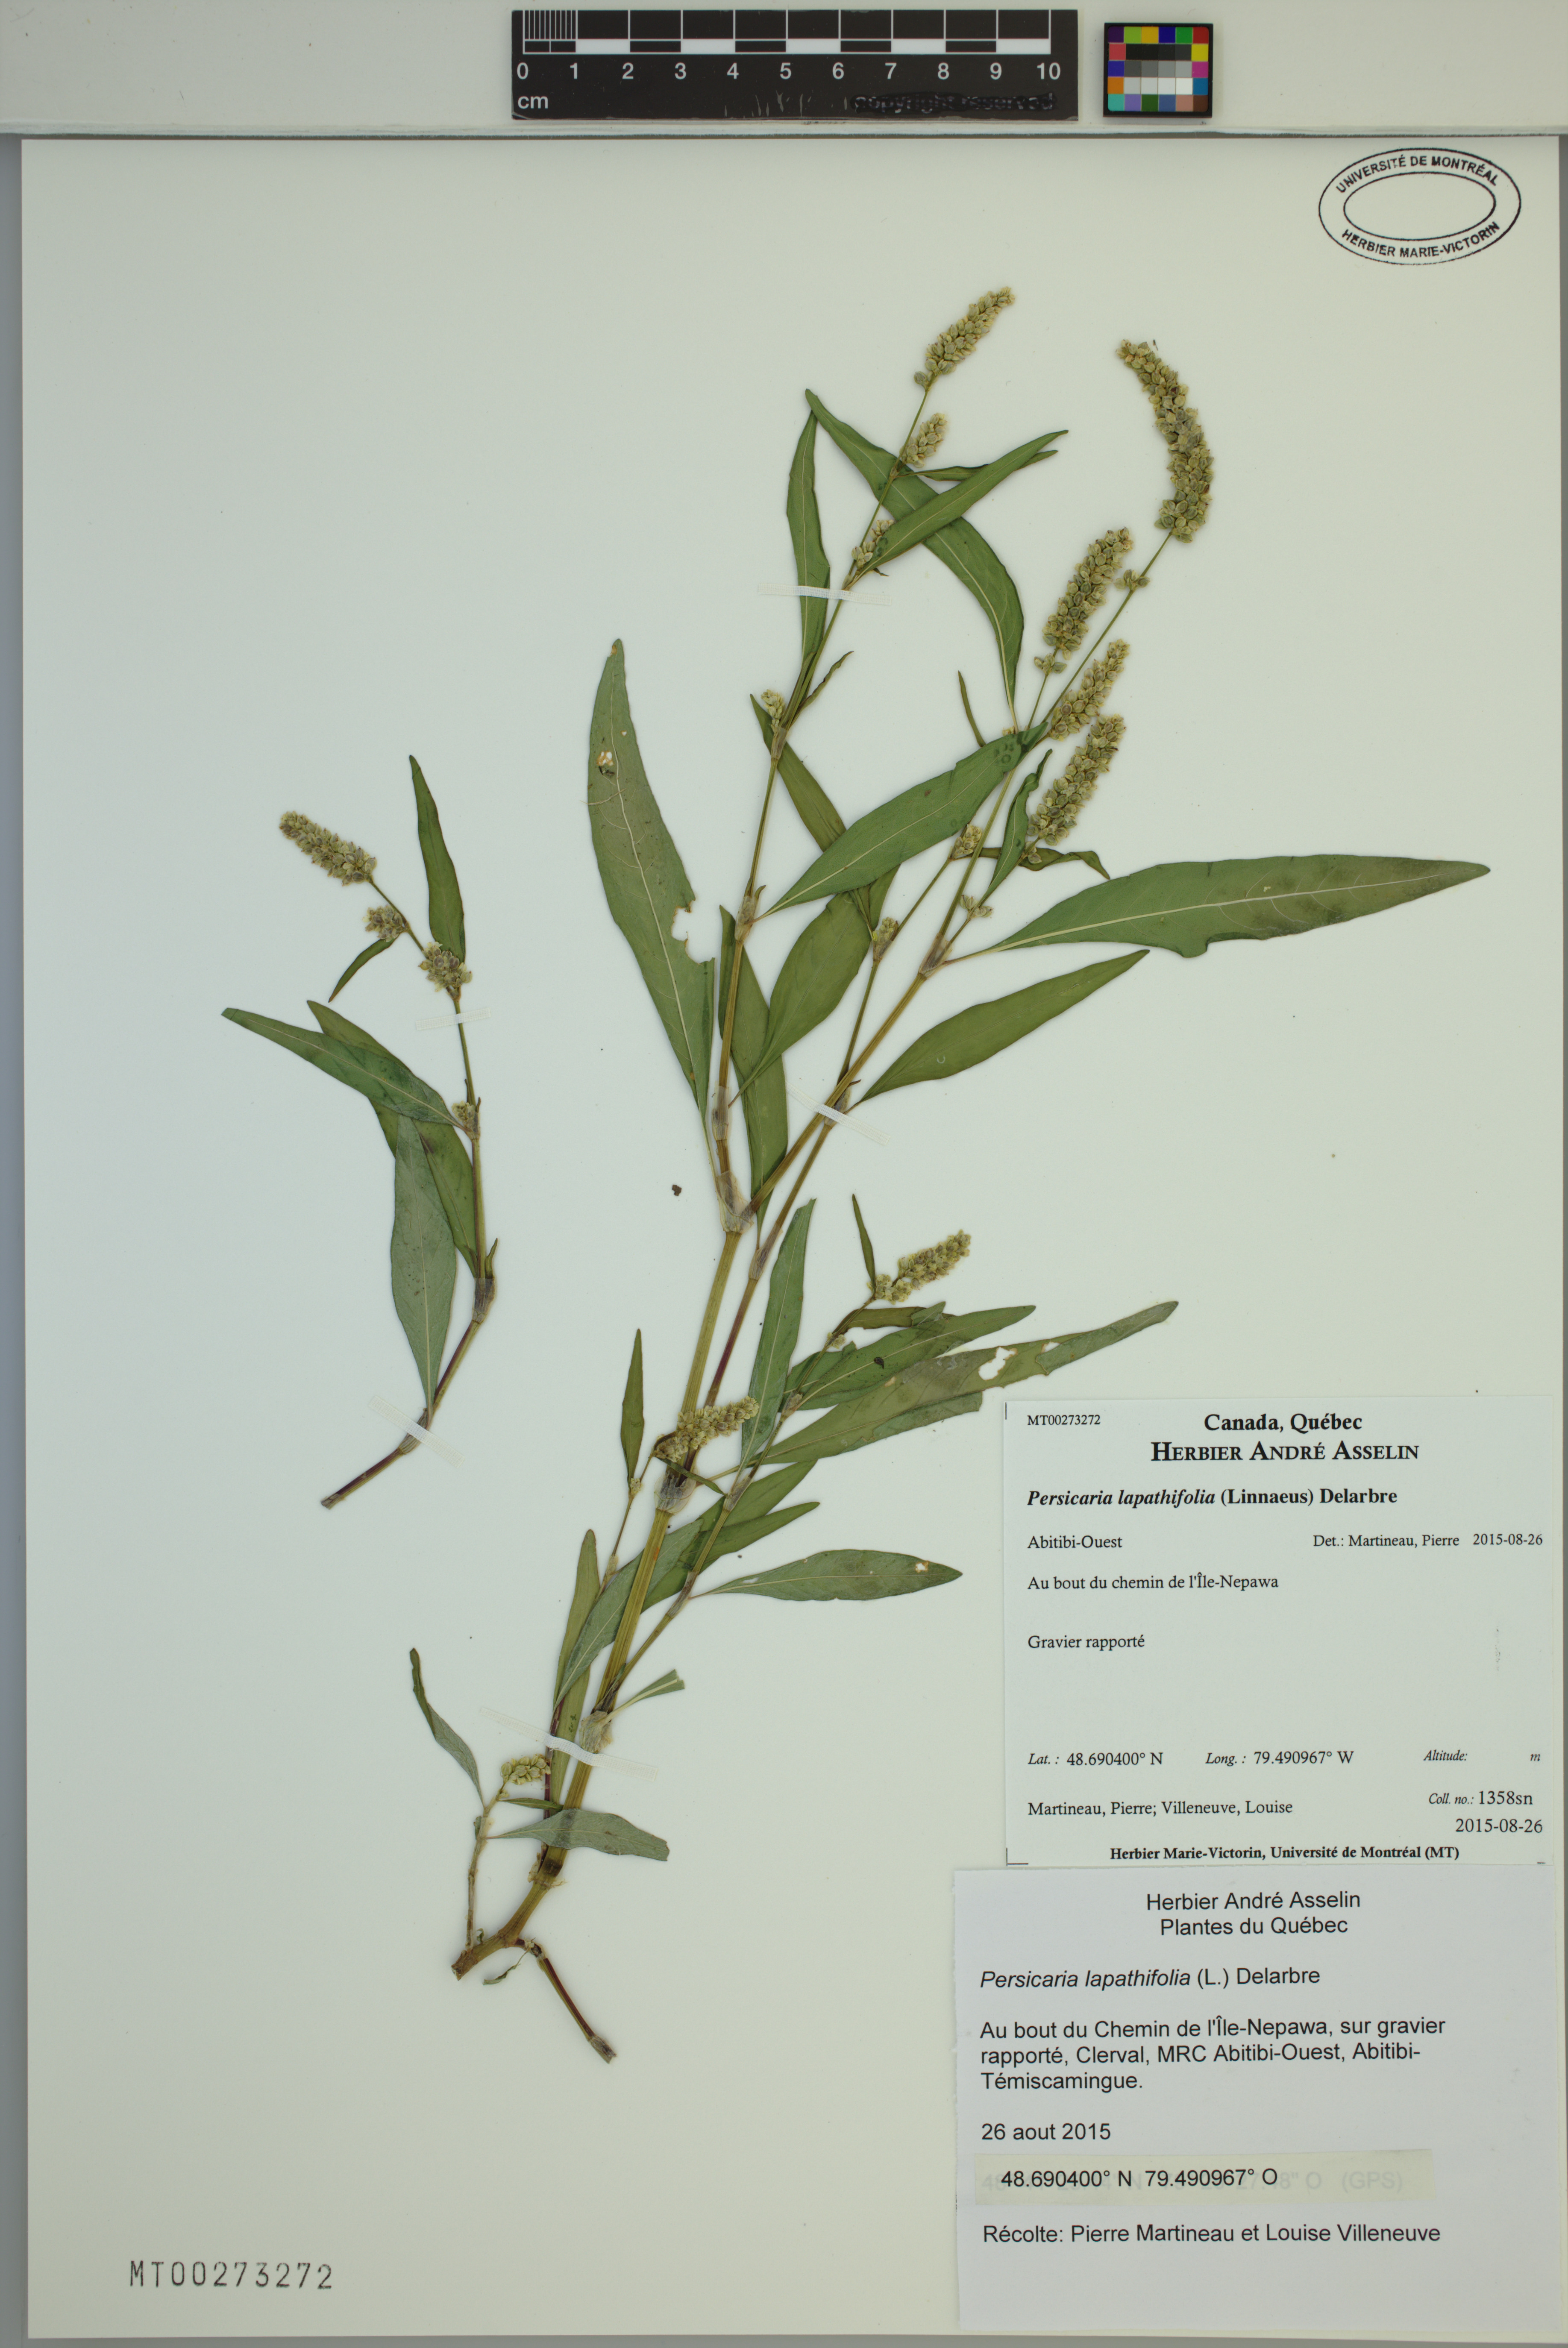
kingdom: Plantae
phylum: Tracheophyta
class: Magnoliopsida
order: Caryophyllales
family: Polygonaceae
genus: Persicaria
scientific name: Persicaria lapathifolia
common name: Curlytop knotweed
